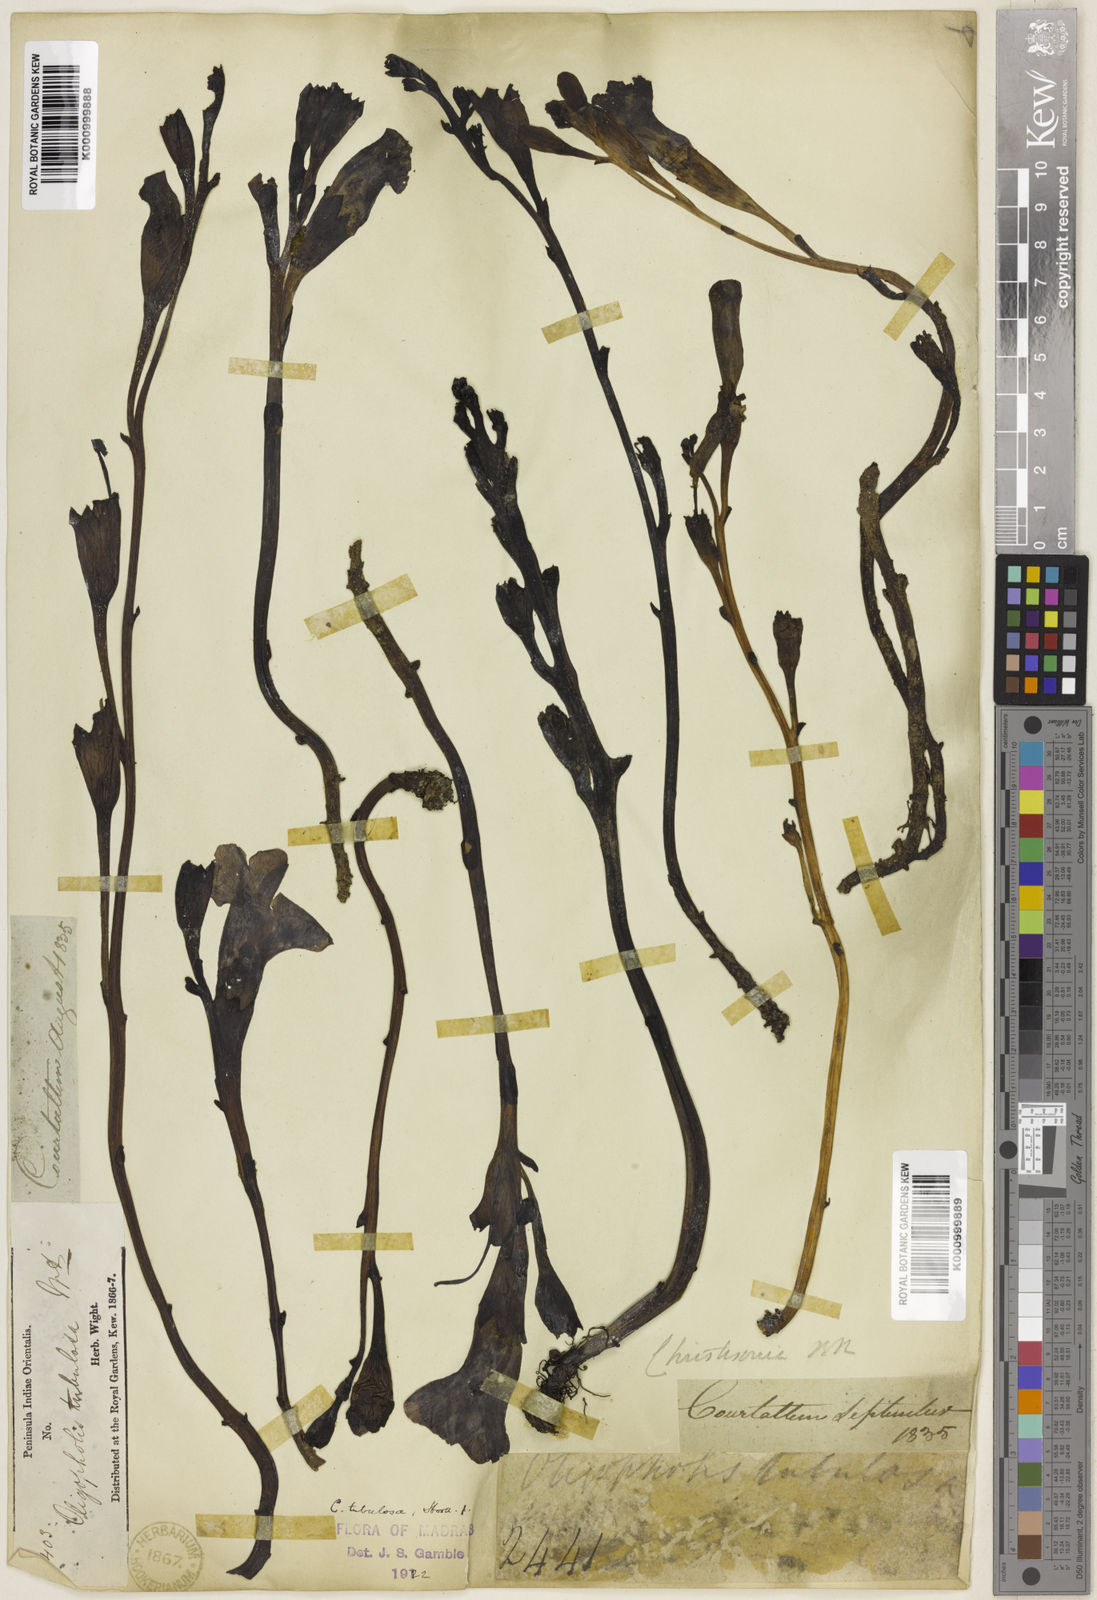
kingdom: Plantae
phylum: Tracheophyta
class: Magnoliopsida
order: Lamiales
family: Orobanchaceae
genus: Christisonia
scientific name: Christisonia tubulosa
